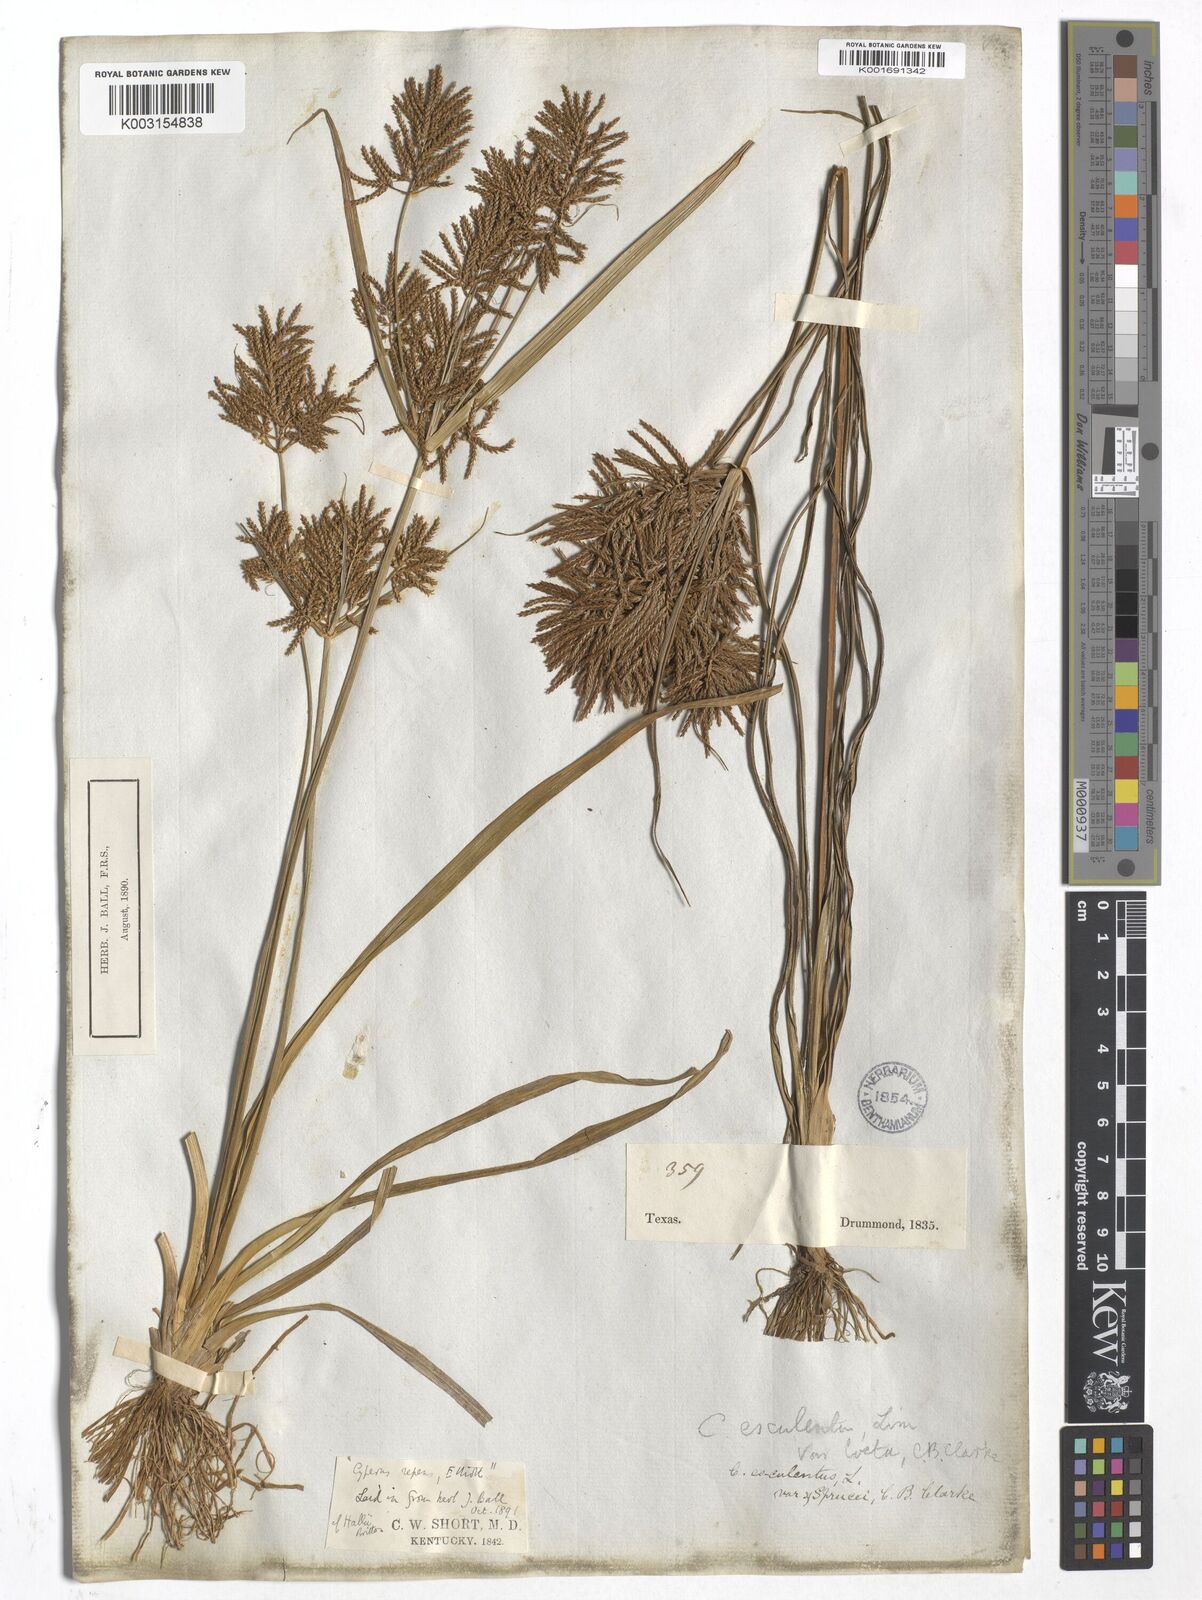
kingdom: Plantae
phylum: Tracheophyta
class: Liliopsida
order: Poales
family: Cyperaceae
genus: Cyperus
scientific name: Cyperus esculentus
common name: Yellow nutsedge
